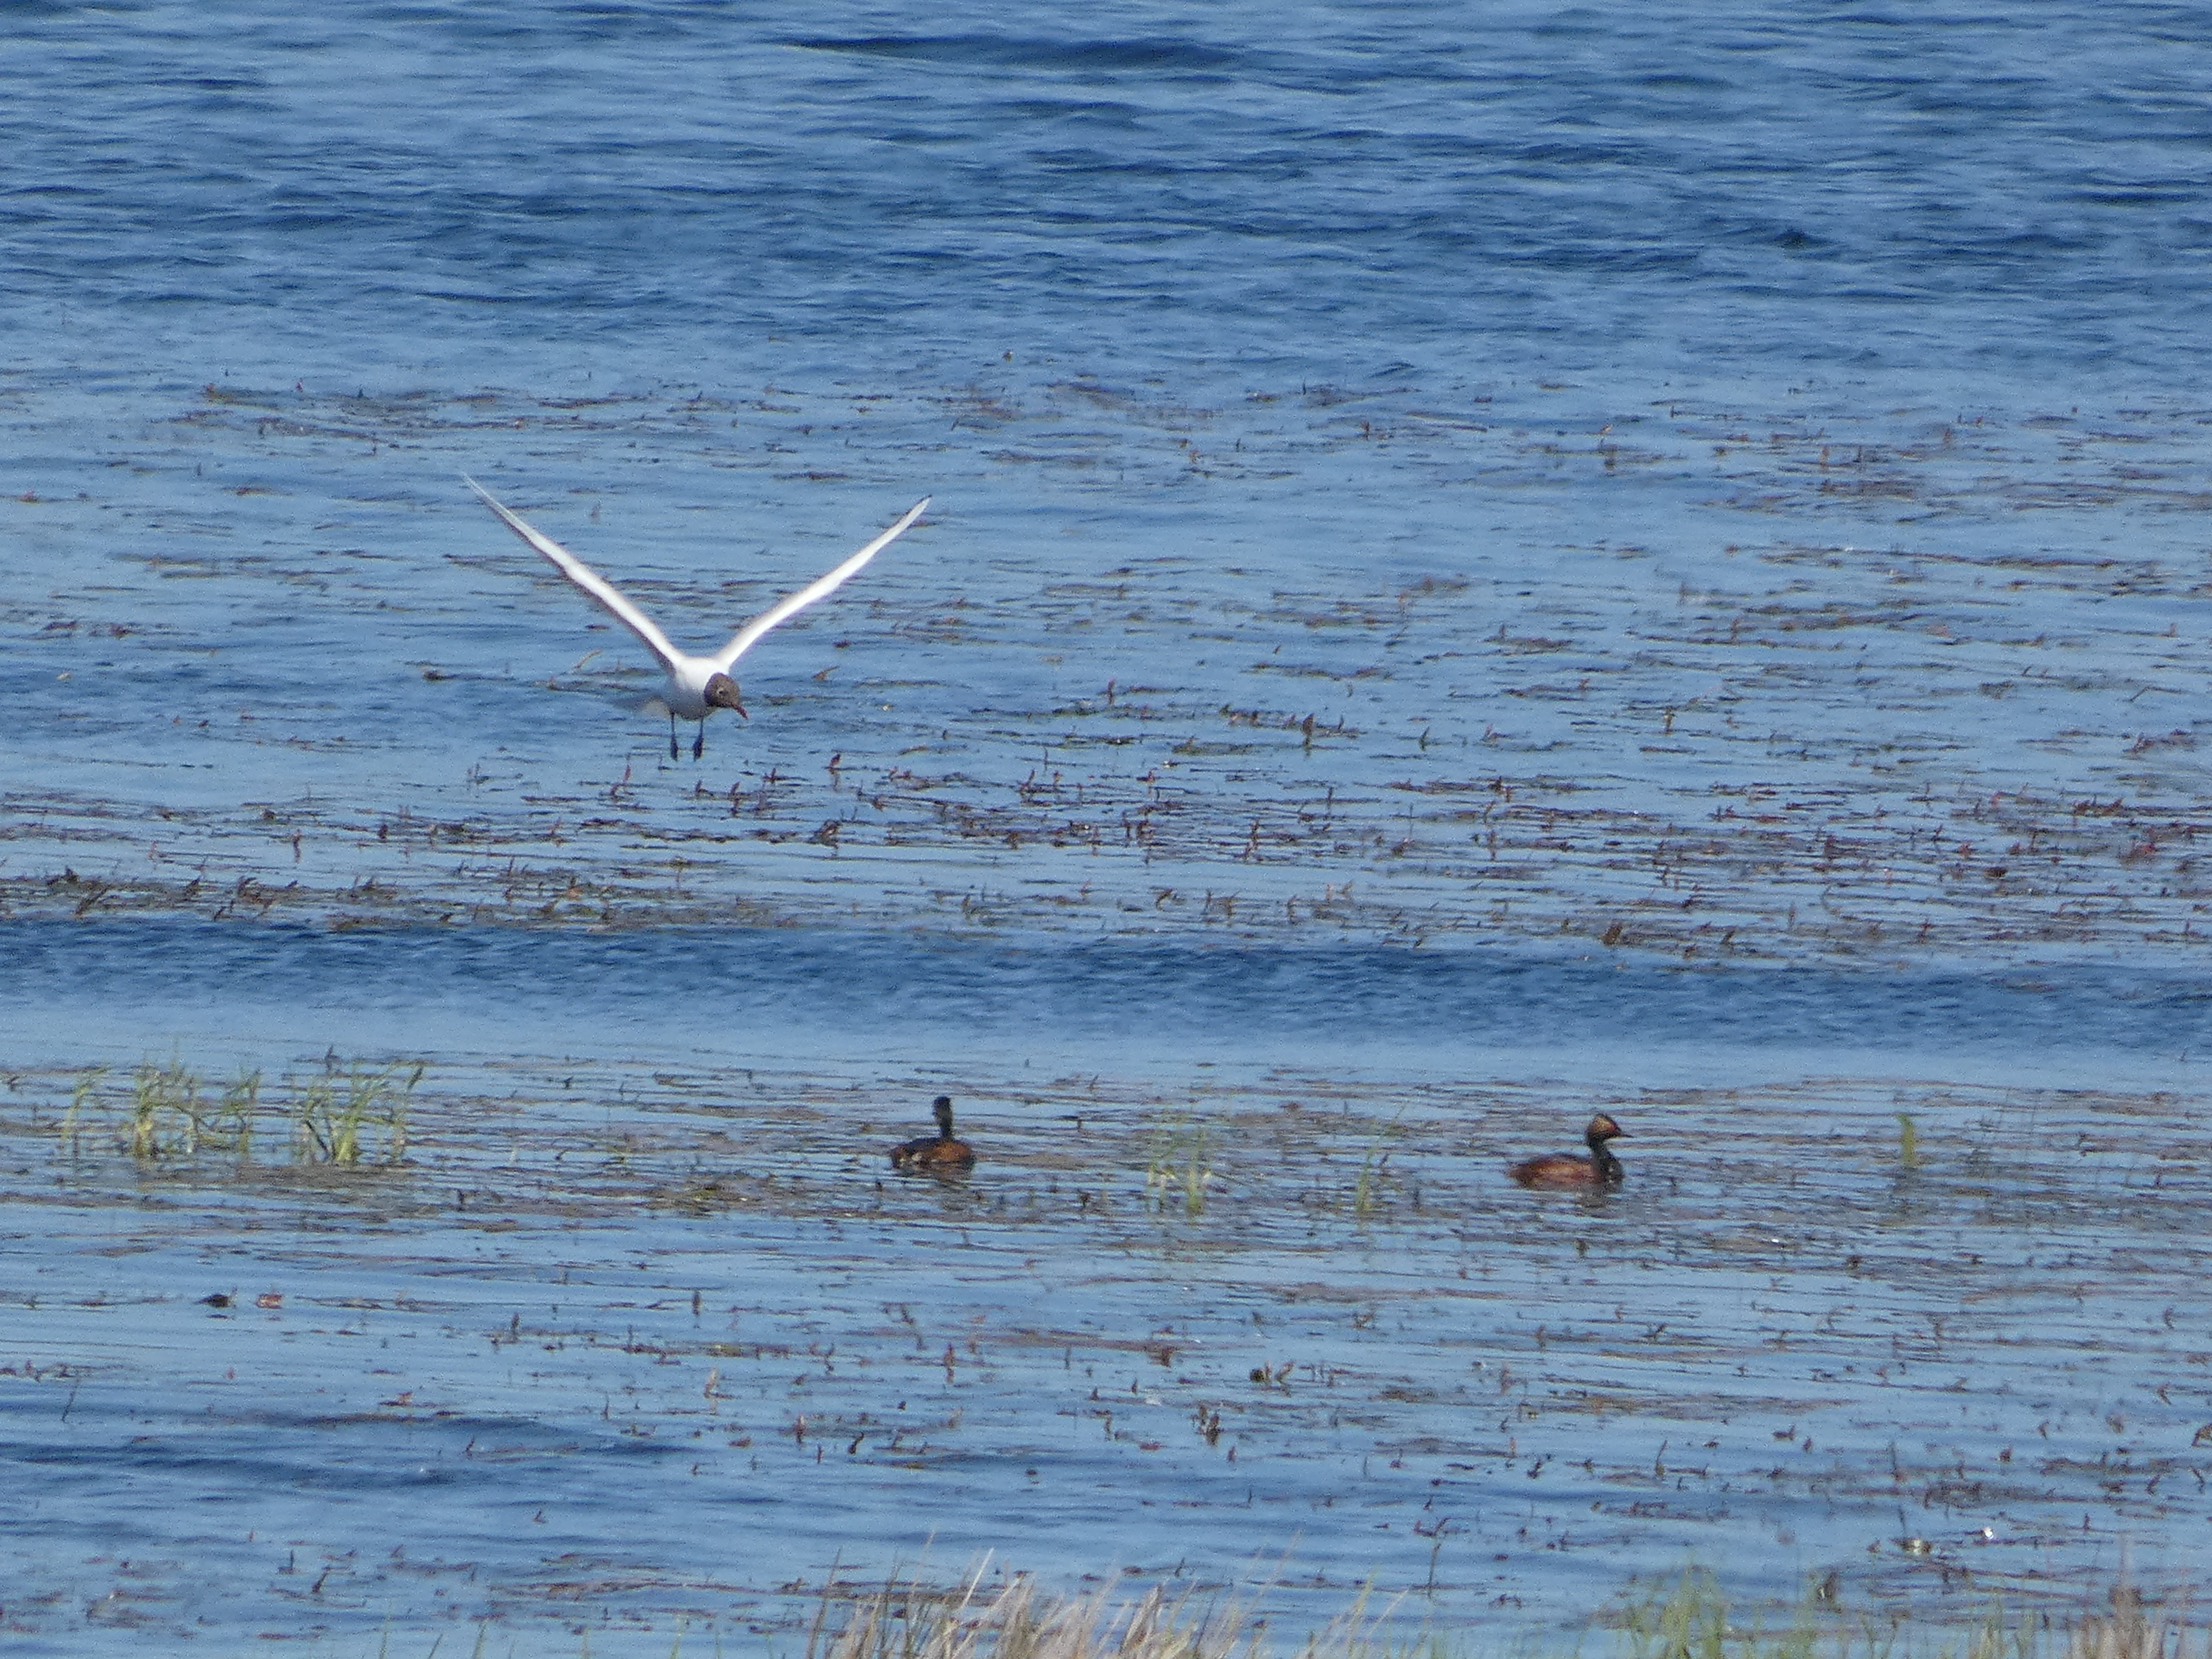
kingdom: Animalia
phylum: Chordata
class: Aves
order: Charadriiformes
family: Laridae
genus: Chroicocephalus
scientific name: Chroicocephalus ridibundus
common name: Hættemåge
